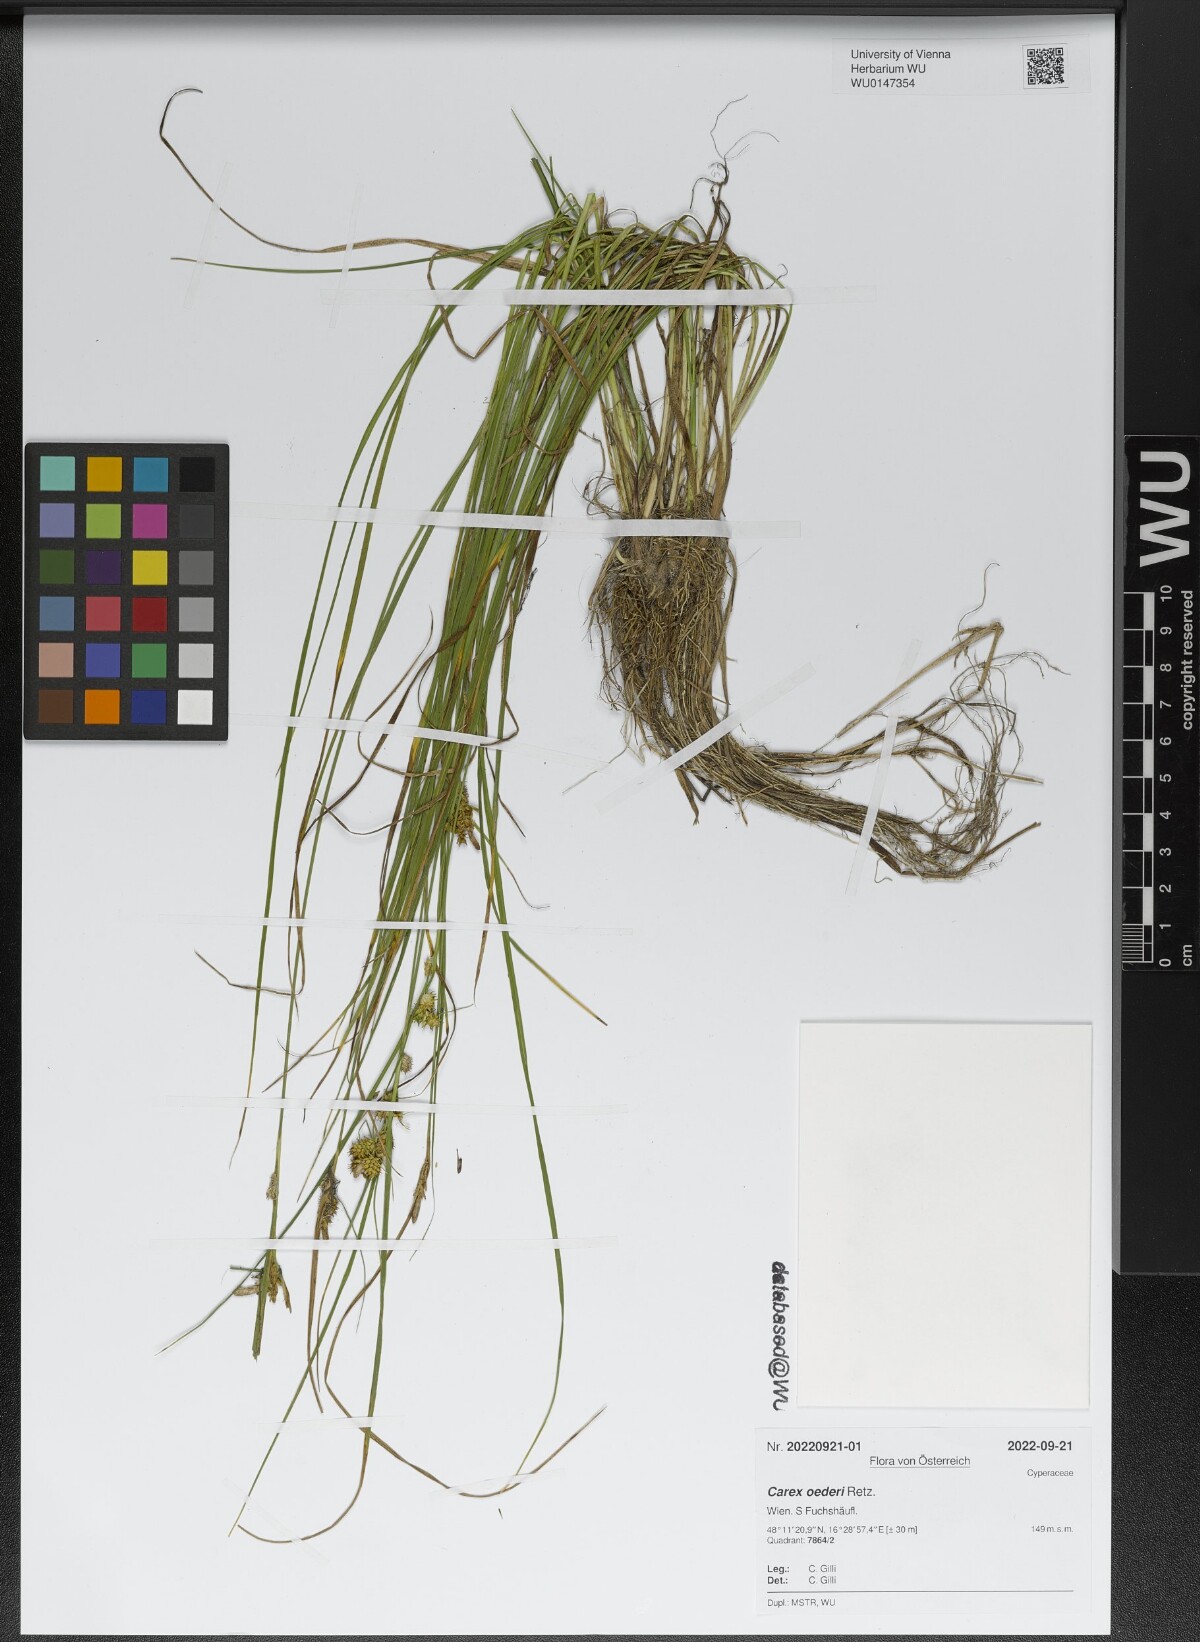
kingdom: Plantae
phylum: Tracheophyta
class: Liliopsida
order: Poales
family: Cyperaceae
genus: Carex
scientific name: Carex oederi
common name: Common & small-fruited yellow-sedge
